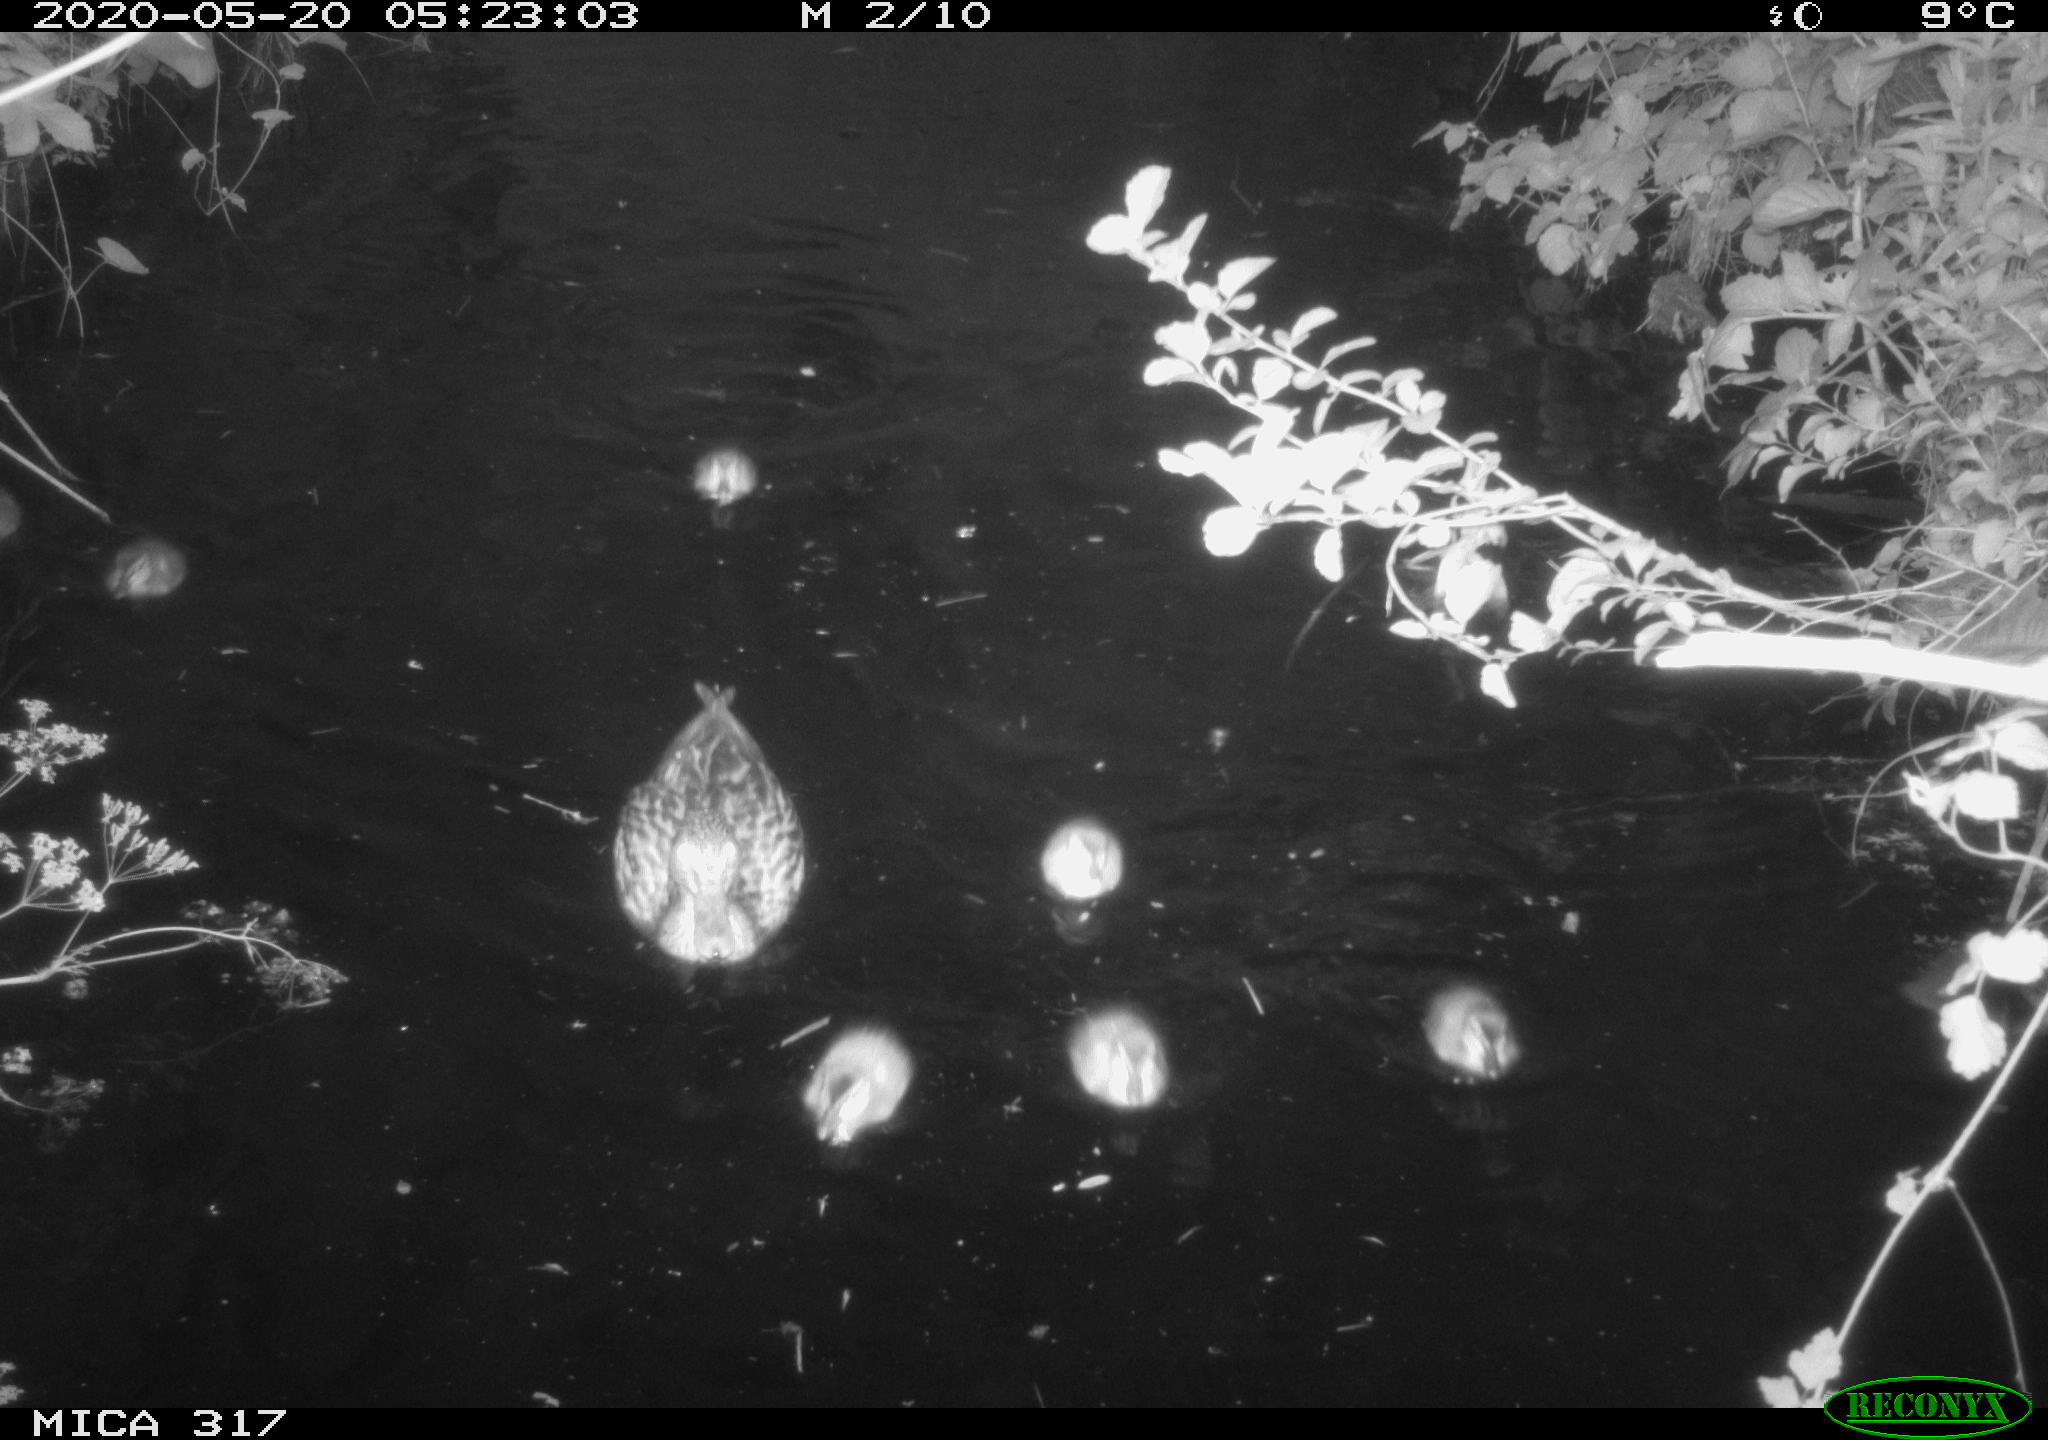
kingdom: Animalia
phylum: Chordata
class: Aves
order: Anseriformes
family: Anatidae
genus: Anas
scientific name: Anas platyrhynchos
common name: Mallard
